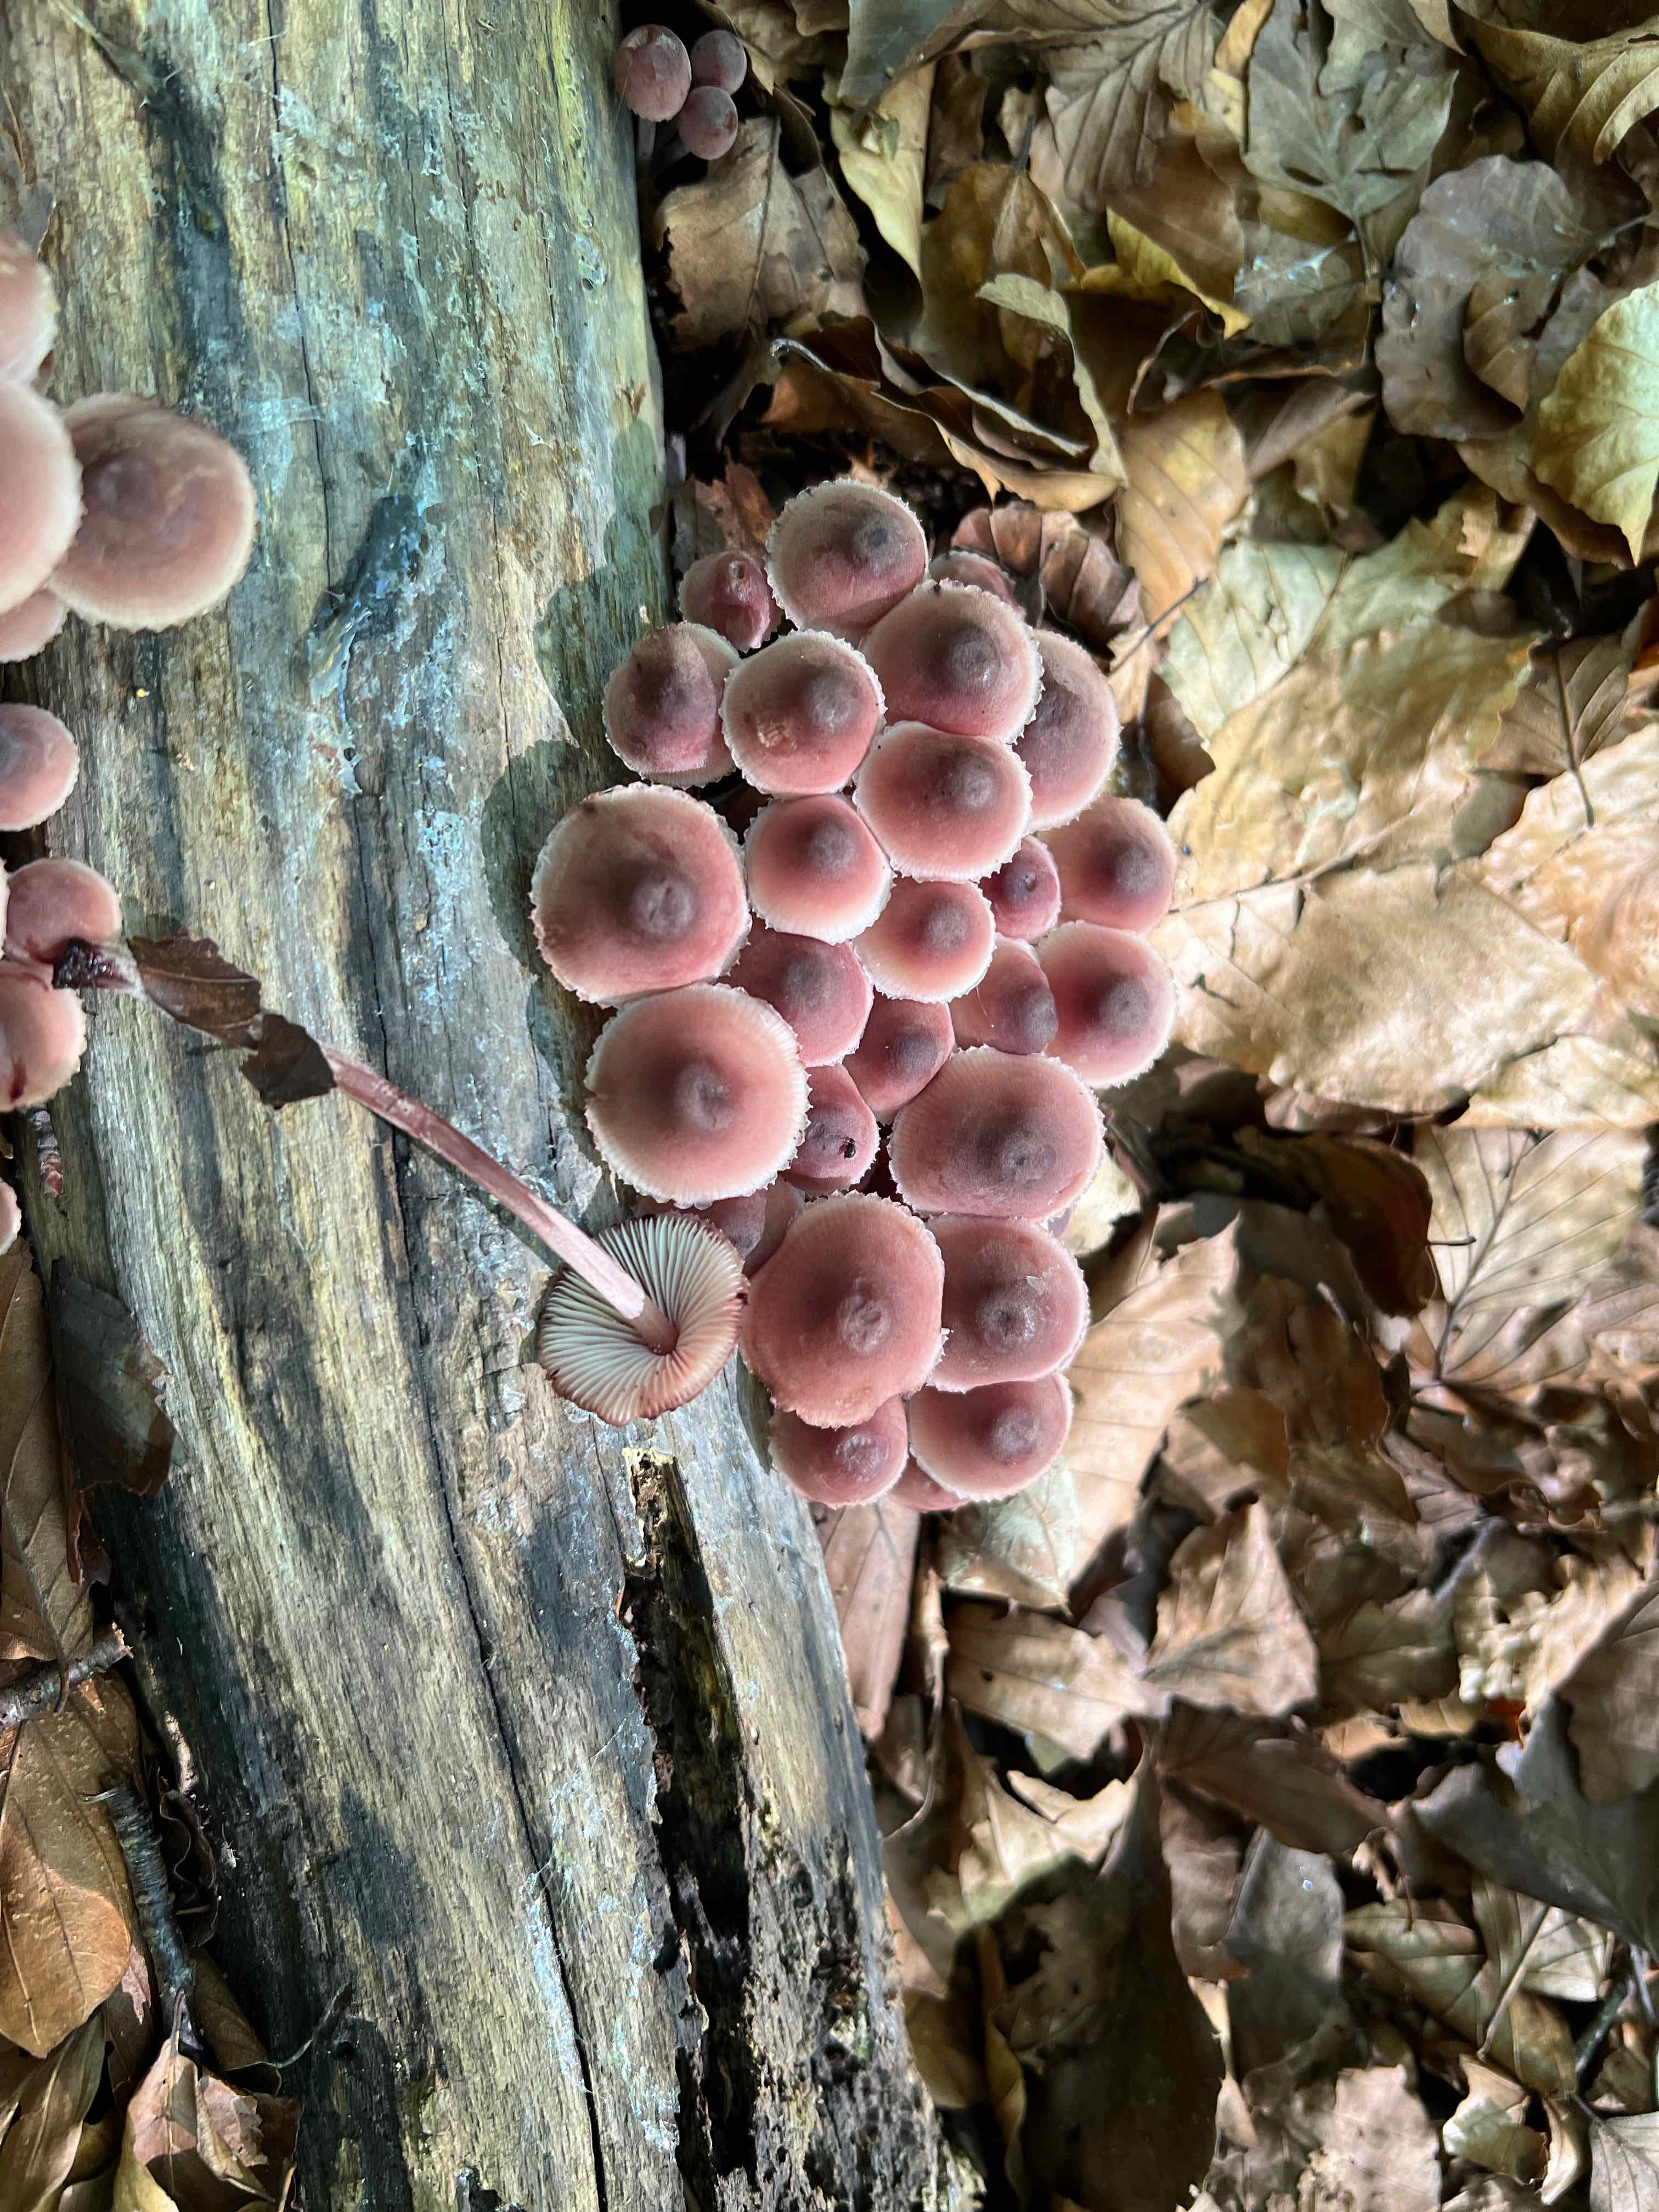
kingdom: Fungi
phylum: Basidiomycota
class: Agaricomycetes
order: Agaricales
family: Mycenaceae
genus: Mycena
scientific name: Mycena haematopus
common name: blødende huesvamp
